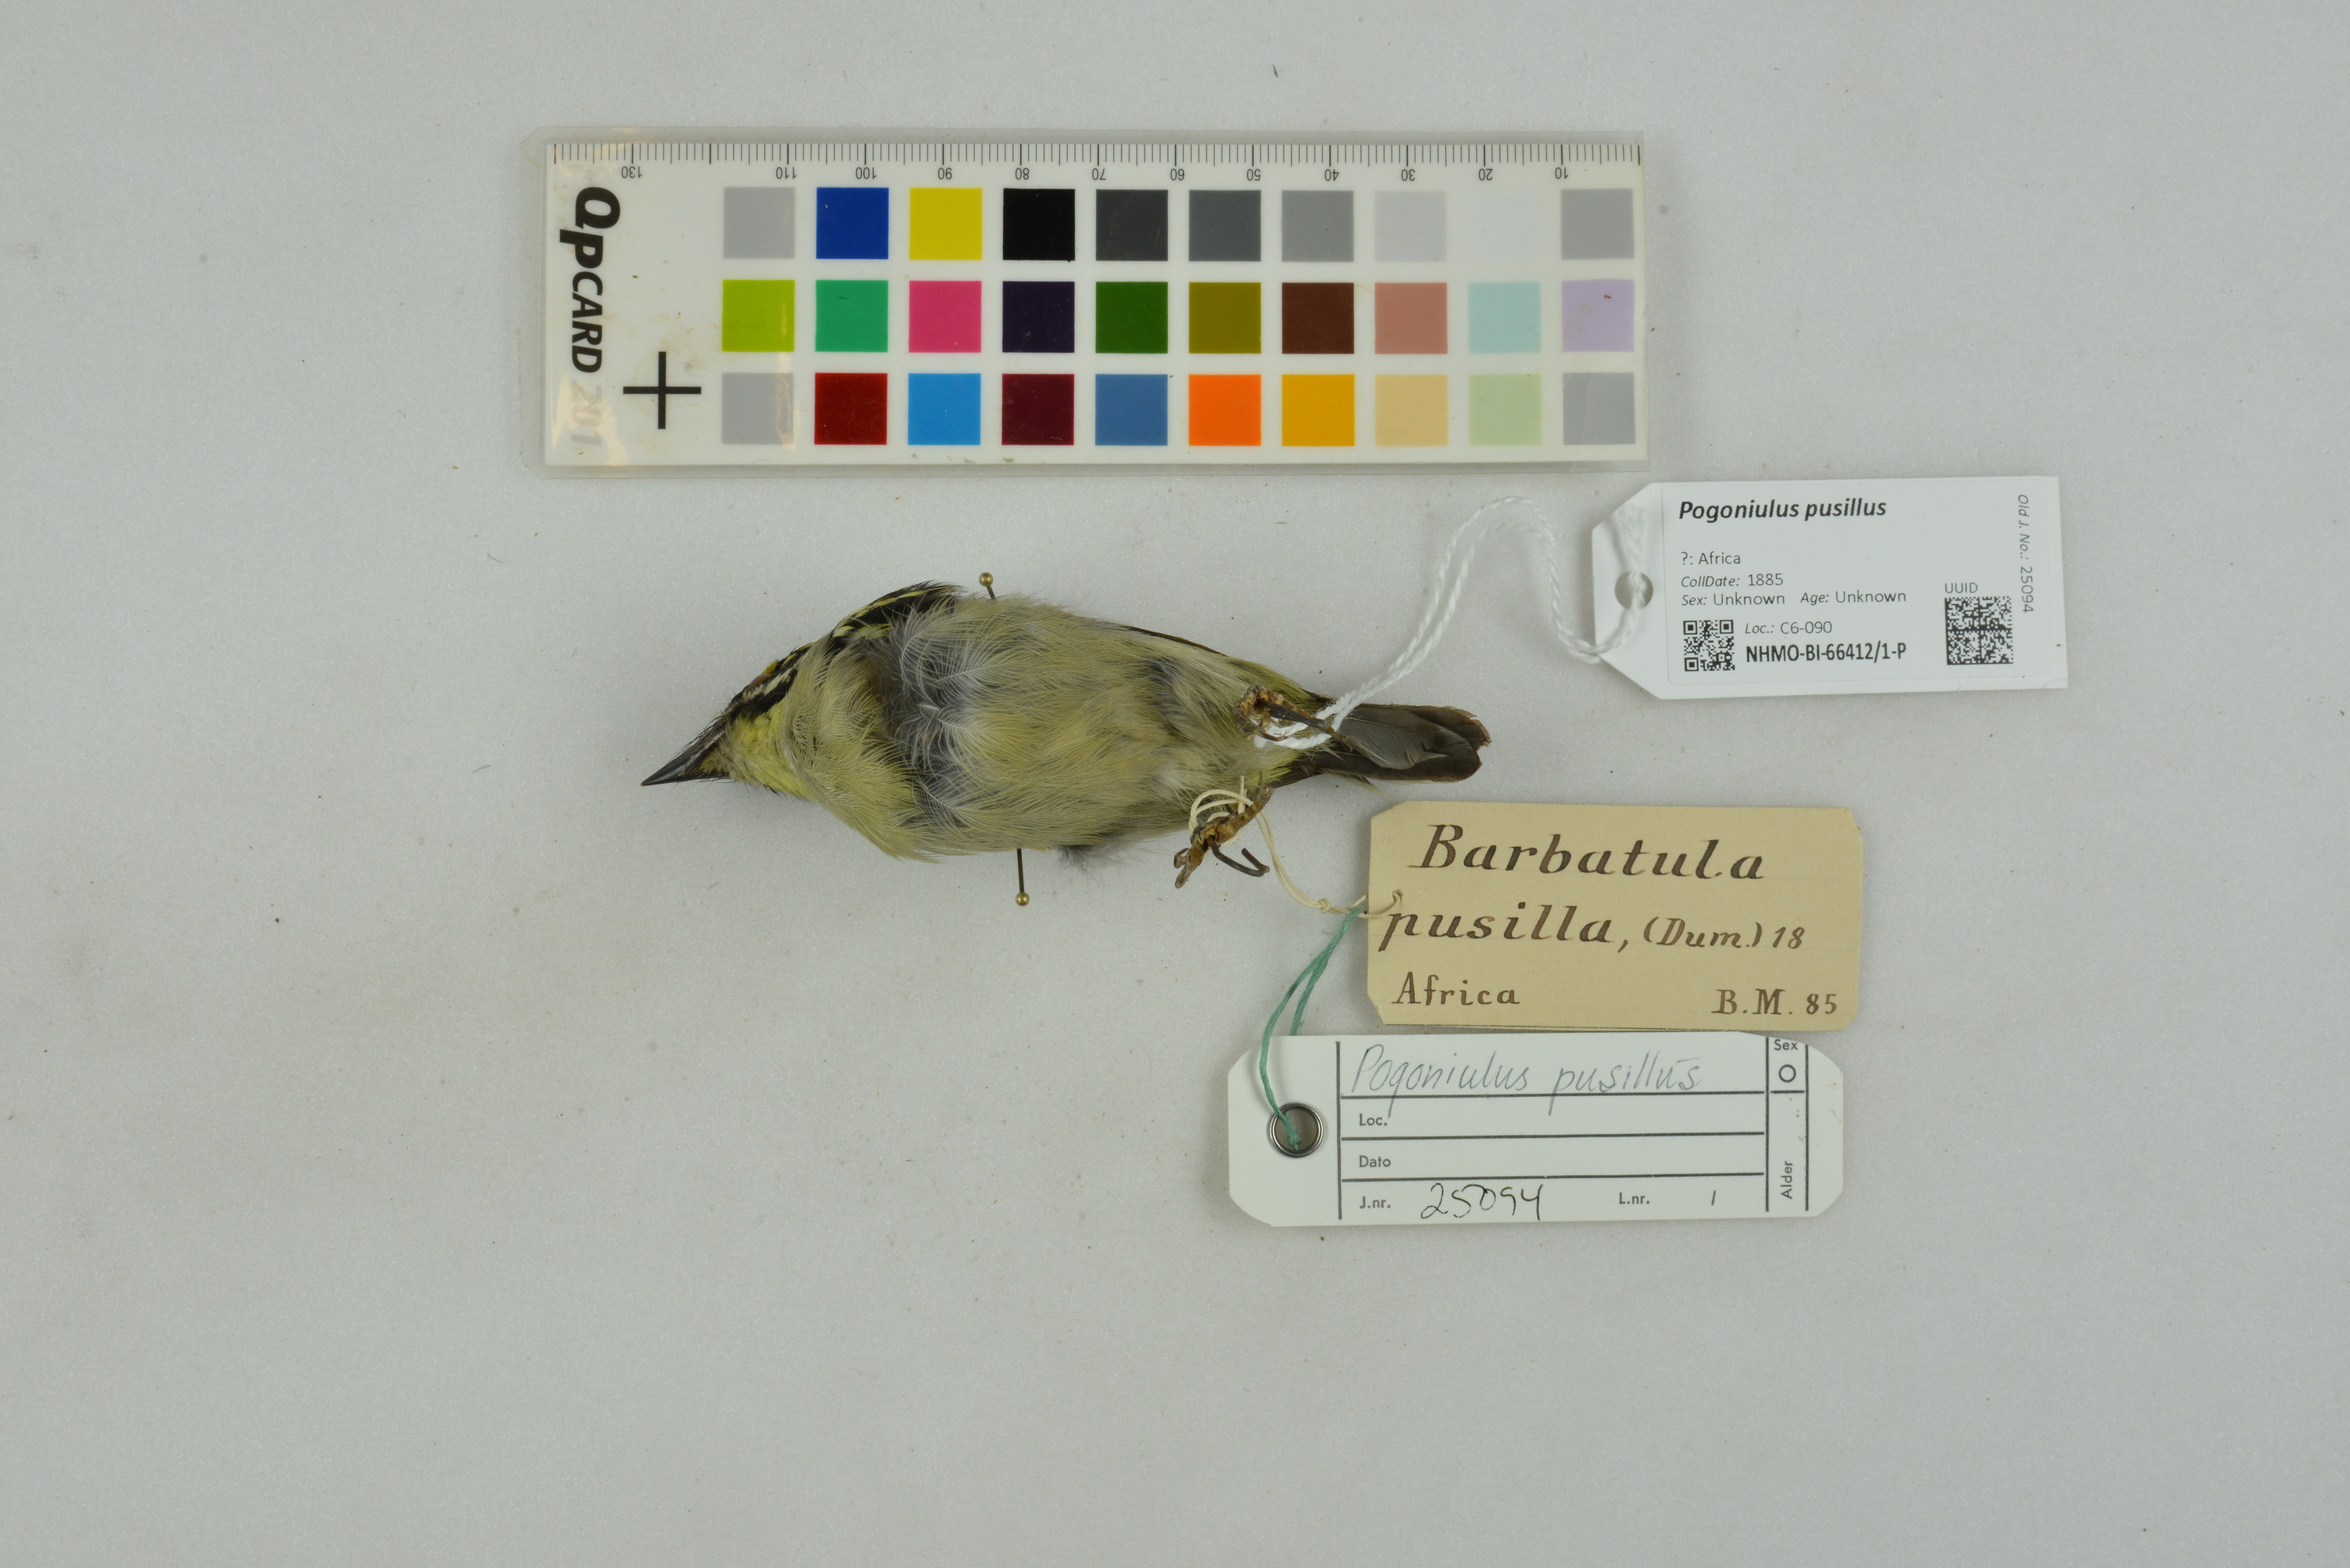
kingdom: Animalia
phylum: Chordata
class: Aves
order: Piciformes
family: Lybiidae
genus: Pogoniulus
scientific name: Pogoniulus pusillus
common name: Red-fronted tinkerbird
